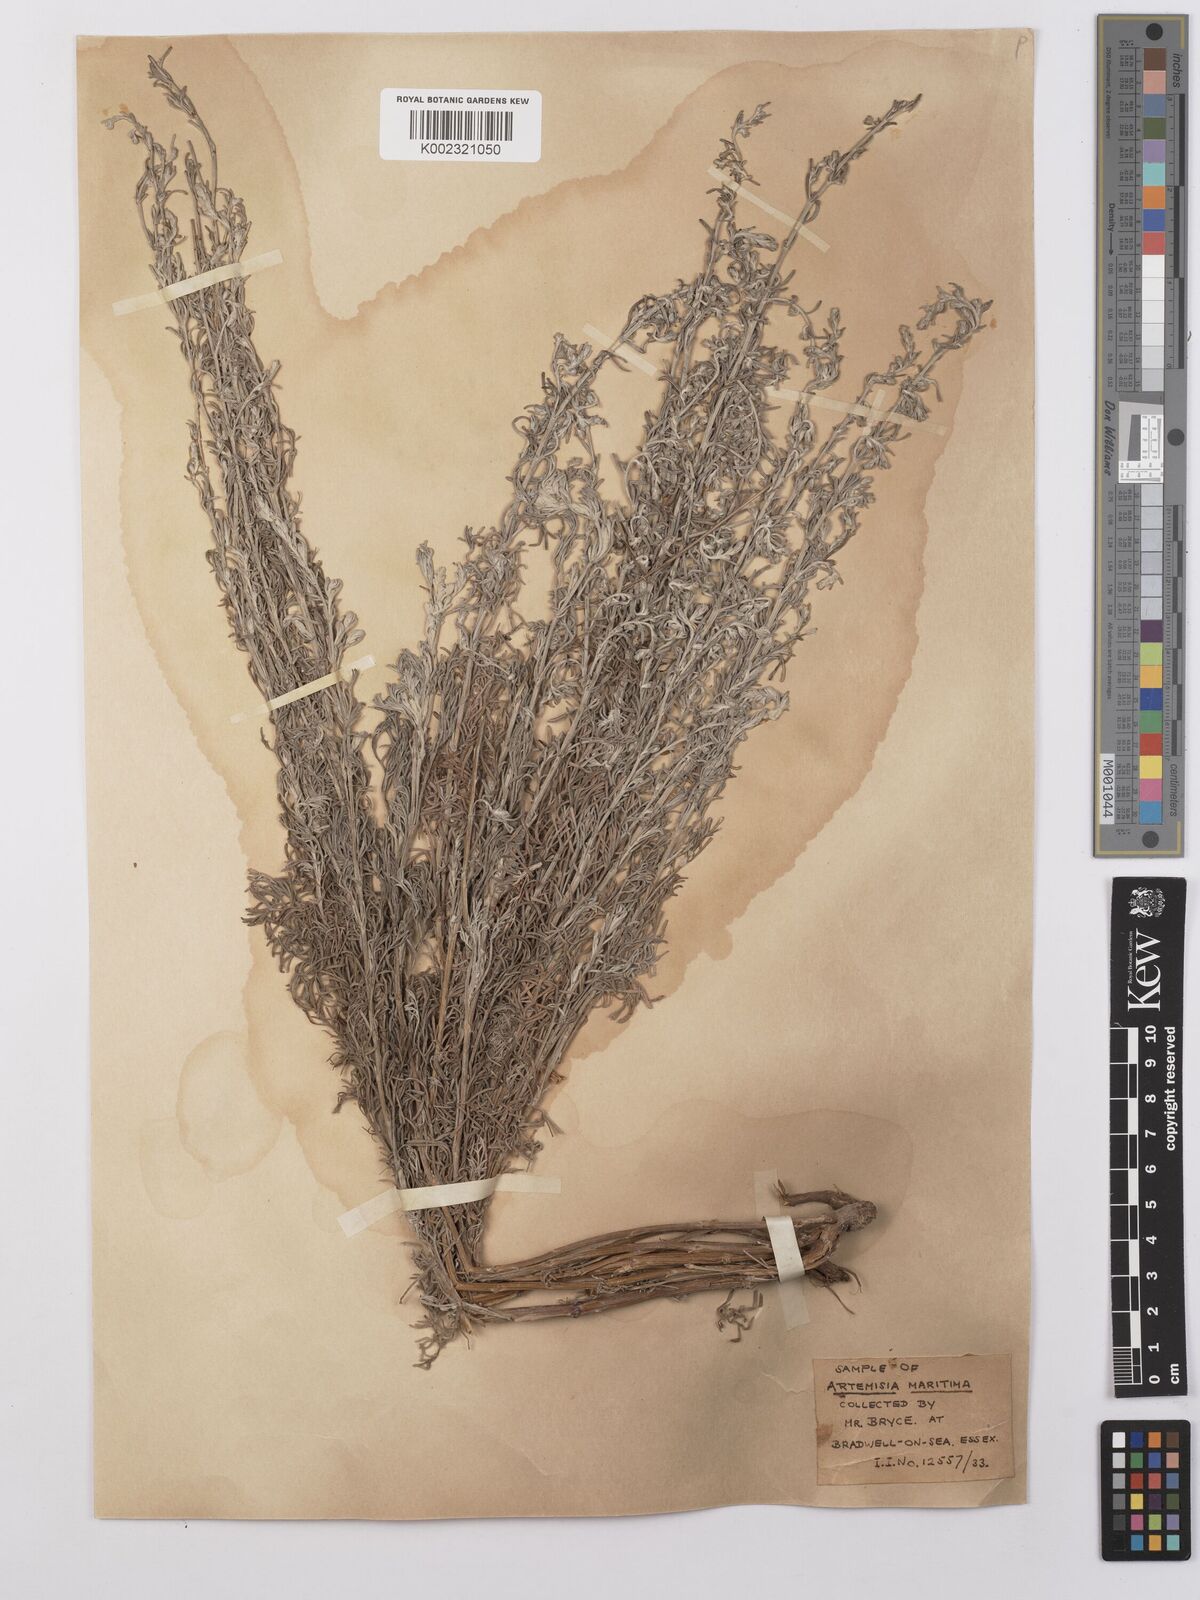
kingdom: Plantae
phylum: Tracheophyta
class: Magnoliopsida
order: Asterales
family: Asteraceae
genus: Artemisia
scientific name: Artemisia maritima
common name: Wormseed
